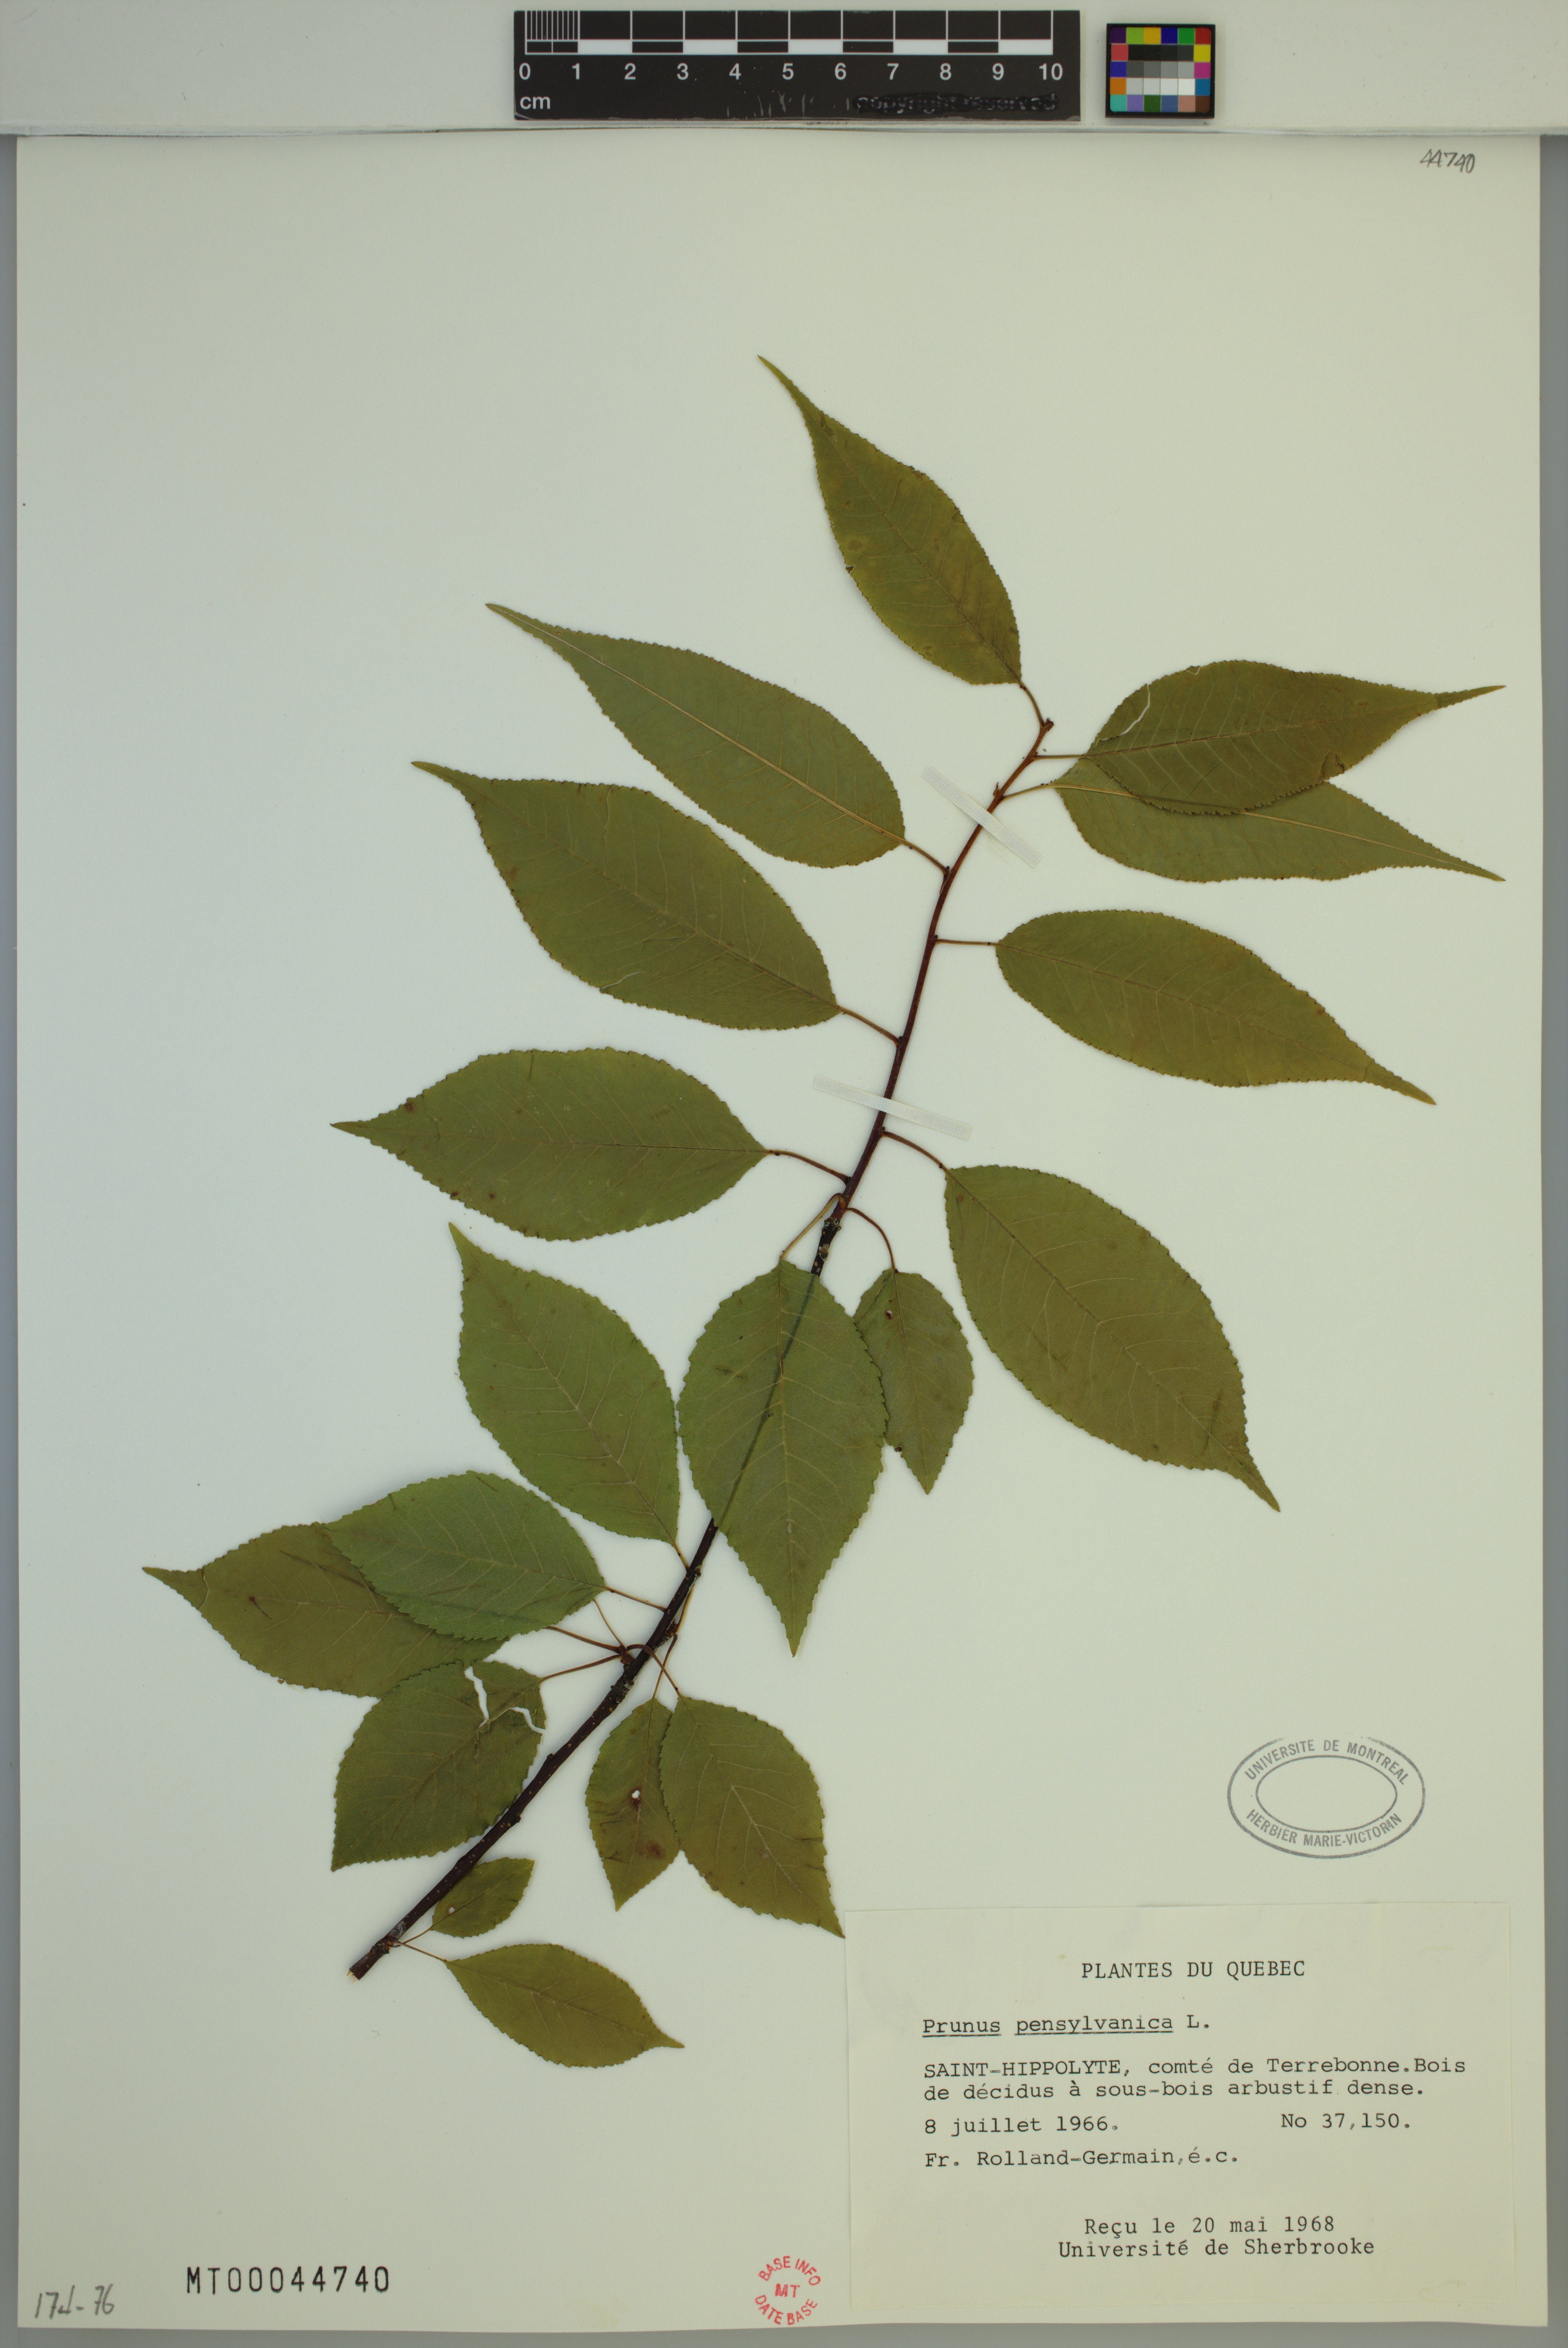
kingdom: Plantae
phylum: Tracheophyta
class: Magnoliopsida
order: Rosales
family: Rosaceae
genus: Prunus
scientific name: Prunus pensylvanica
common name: Pin cherry
